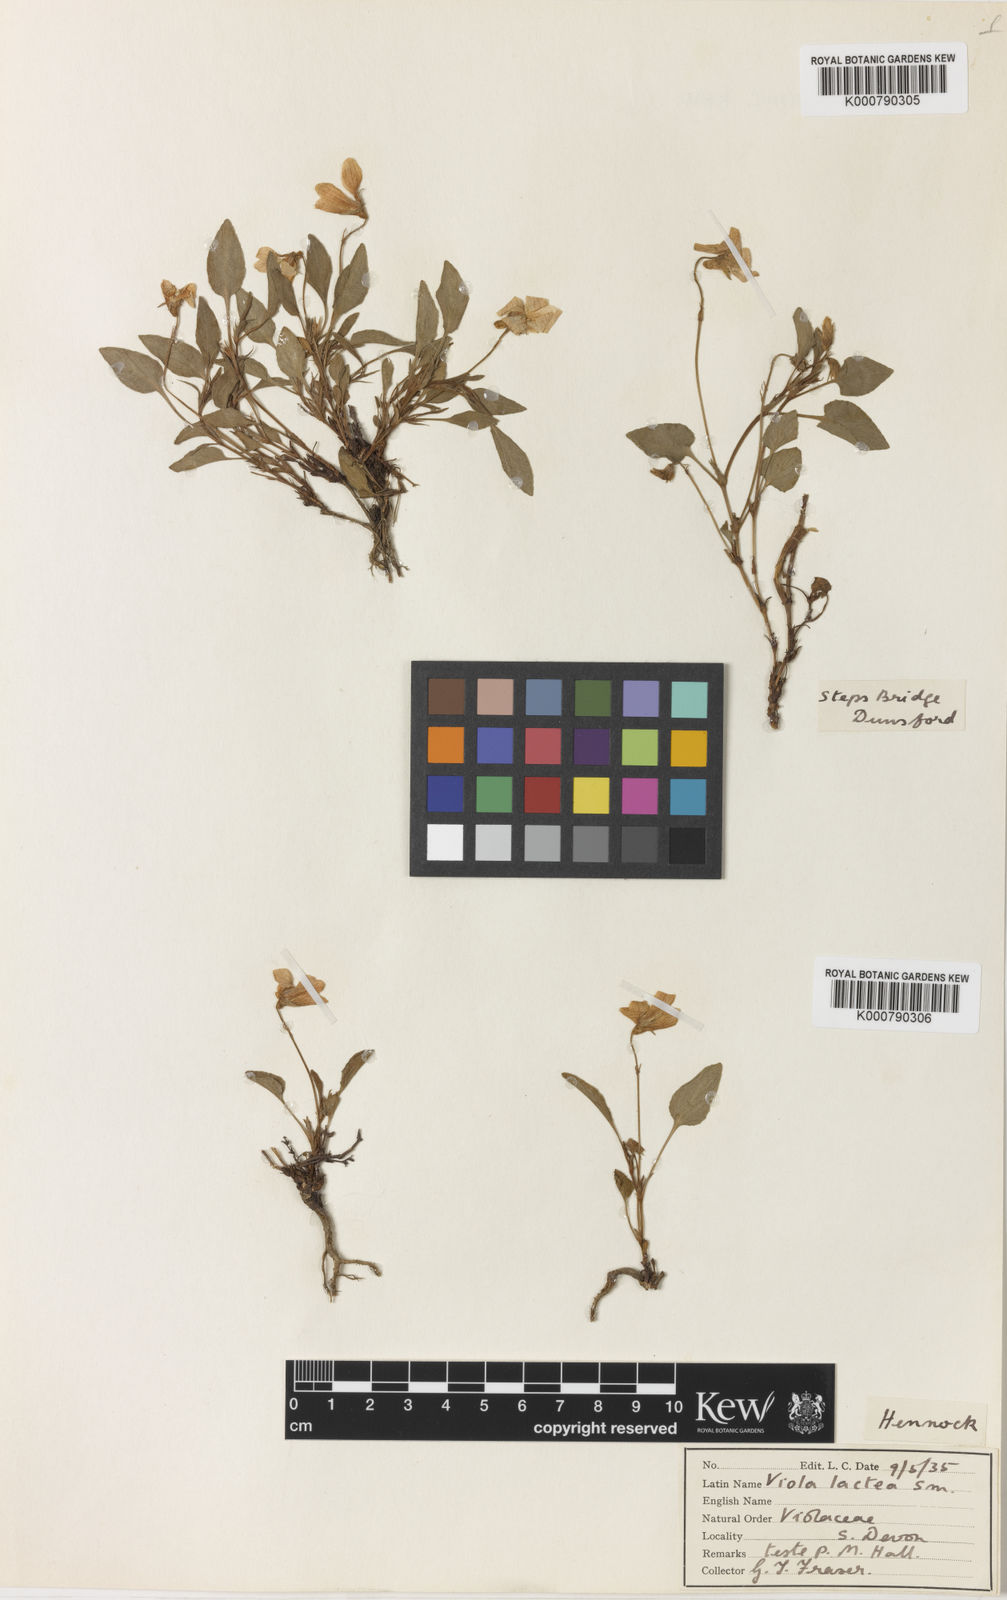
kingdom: Plantae
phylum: Tracheophyta
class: Magnoliopsida
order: Malpighiales
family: Violaceae
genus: Viola
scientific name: Viola lactea
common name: Pale dog-violet
